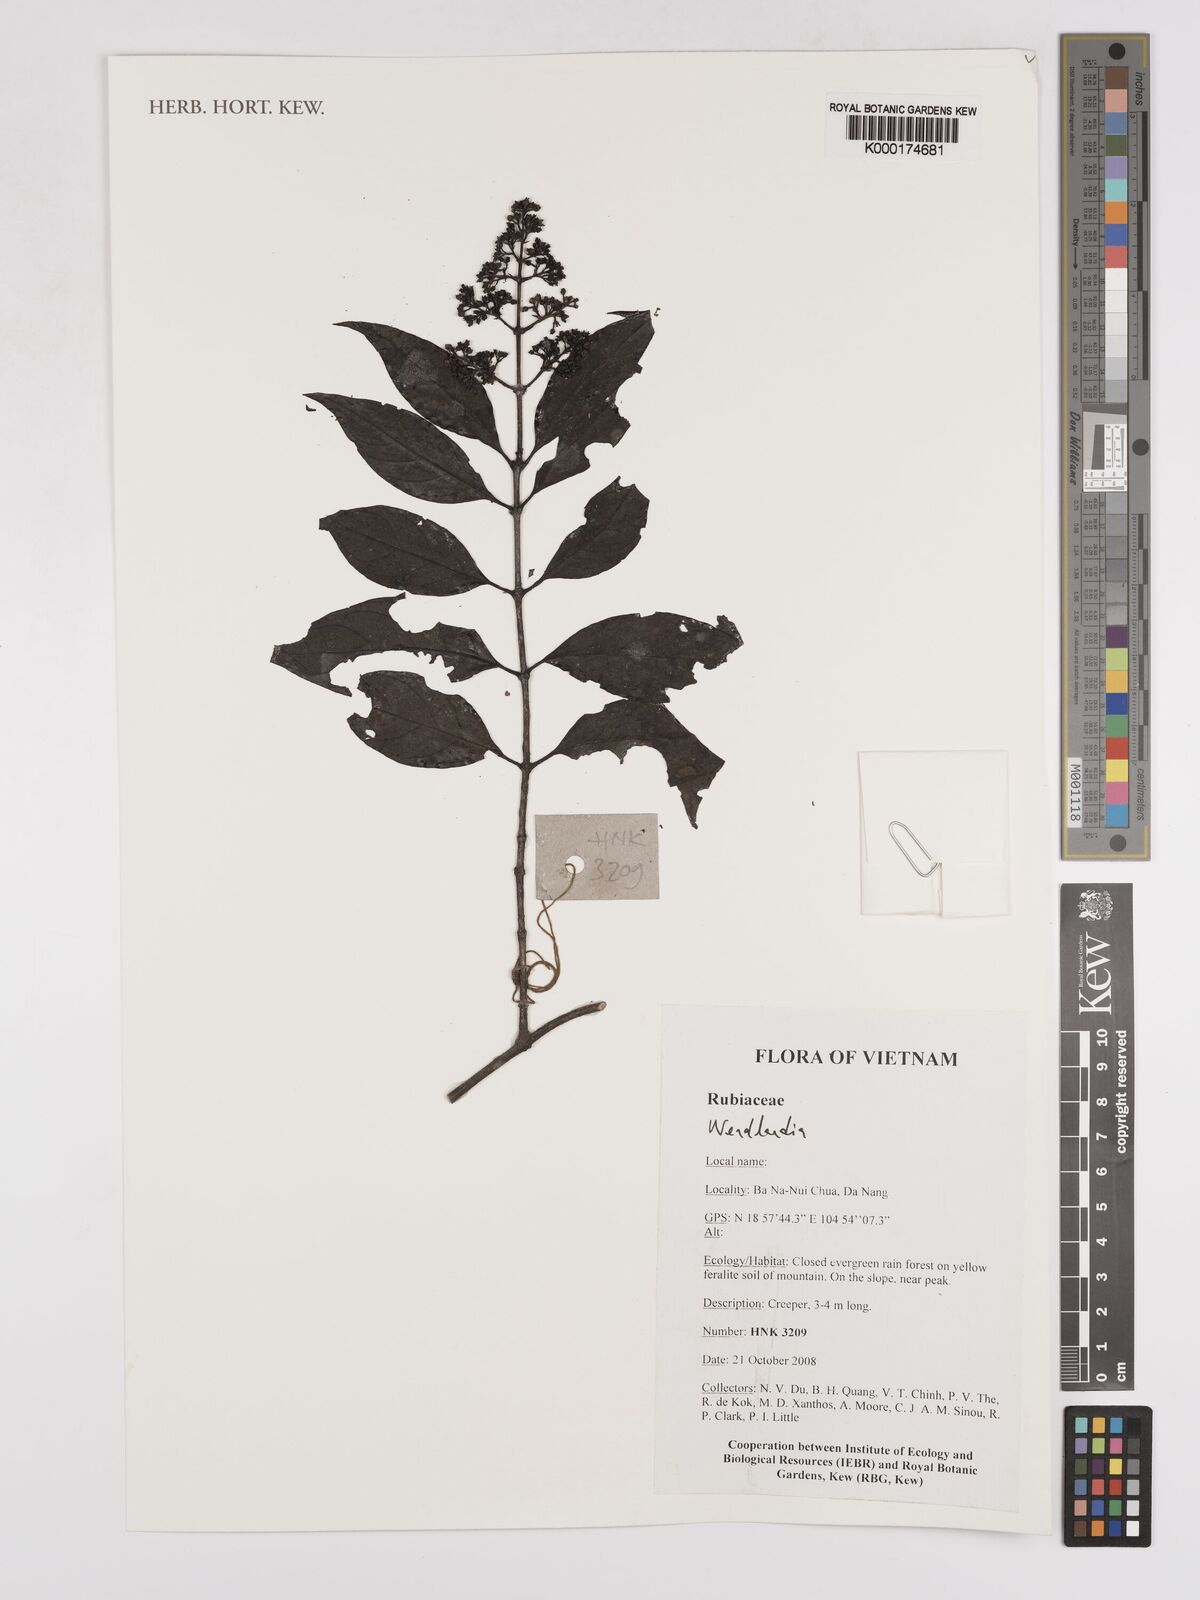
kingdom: Plantae
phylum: Tracheophyta
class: Magnoliopsida
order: Gentianales
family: Rubiaceae
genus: Wendlandia
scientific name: Wendlandia
